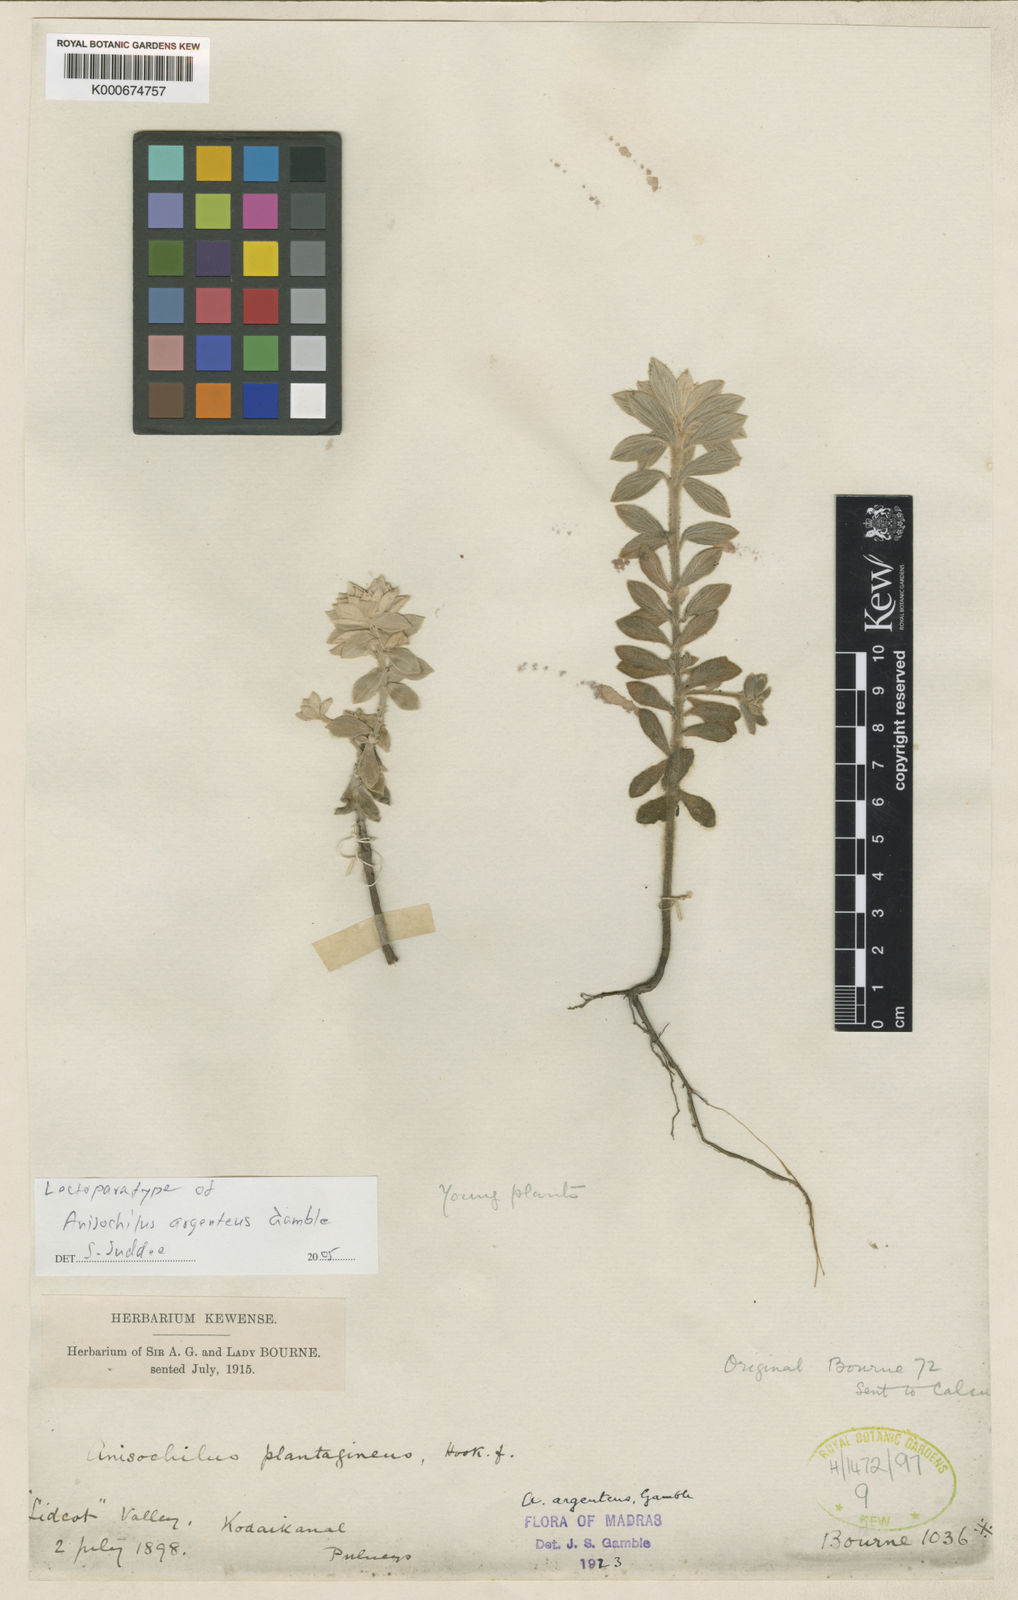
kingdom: Plantae
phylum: Tracheophyta
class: Magnoliopsida
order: Lamiales
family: Lamiaceae
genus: Coleus
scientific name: Coleus argenteus
